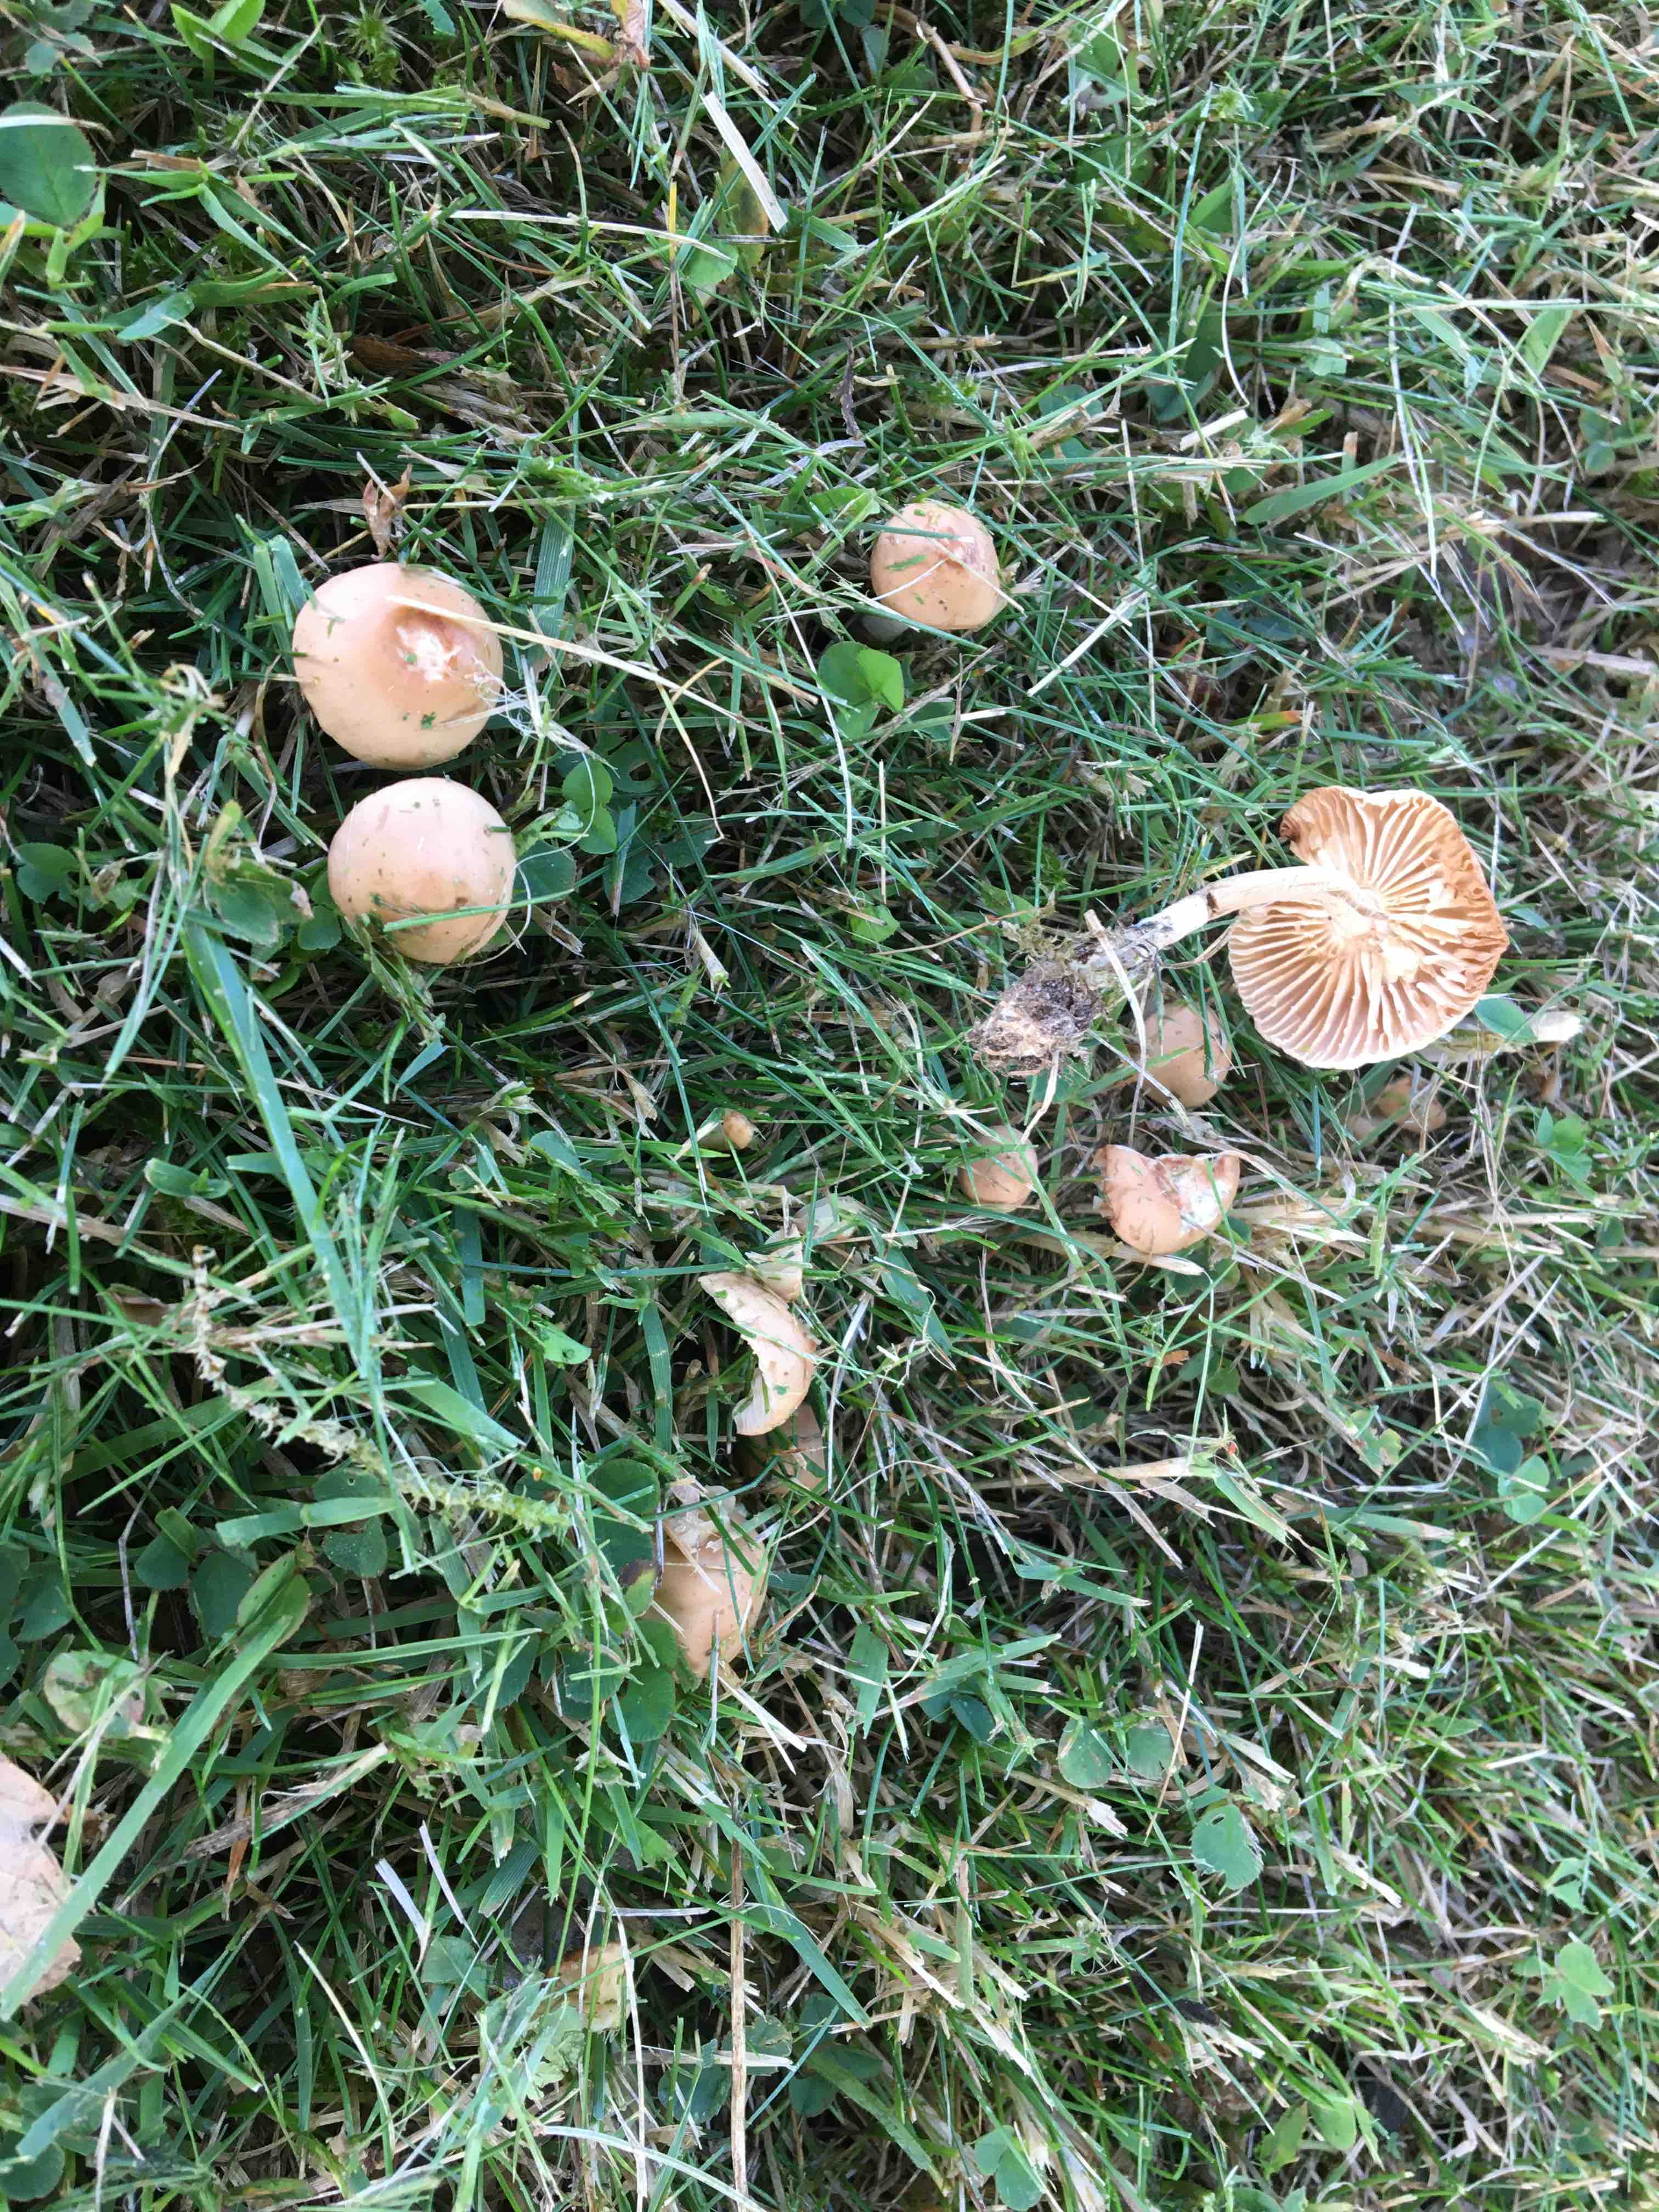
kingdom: Fungi
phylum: Basidiomycota
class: Agaricomycetes
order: Agaricales
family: Marasmiaceae
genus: Marasmius
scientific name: Marasmius oreades
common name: elledans-bruskhat
